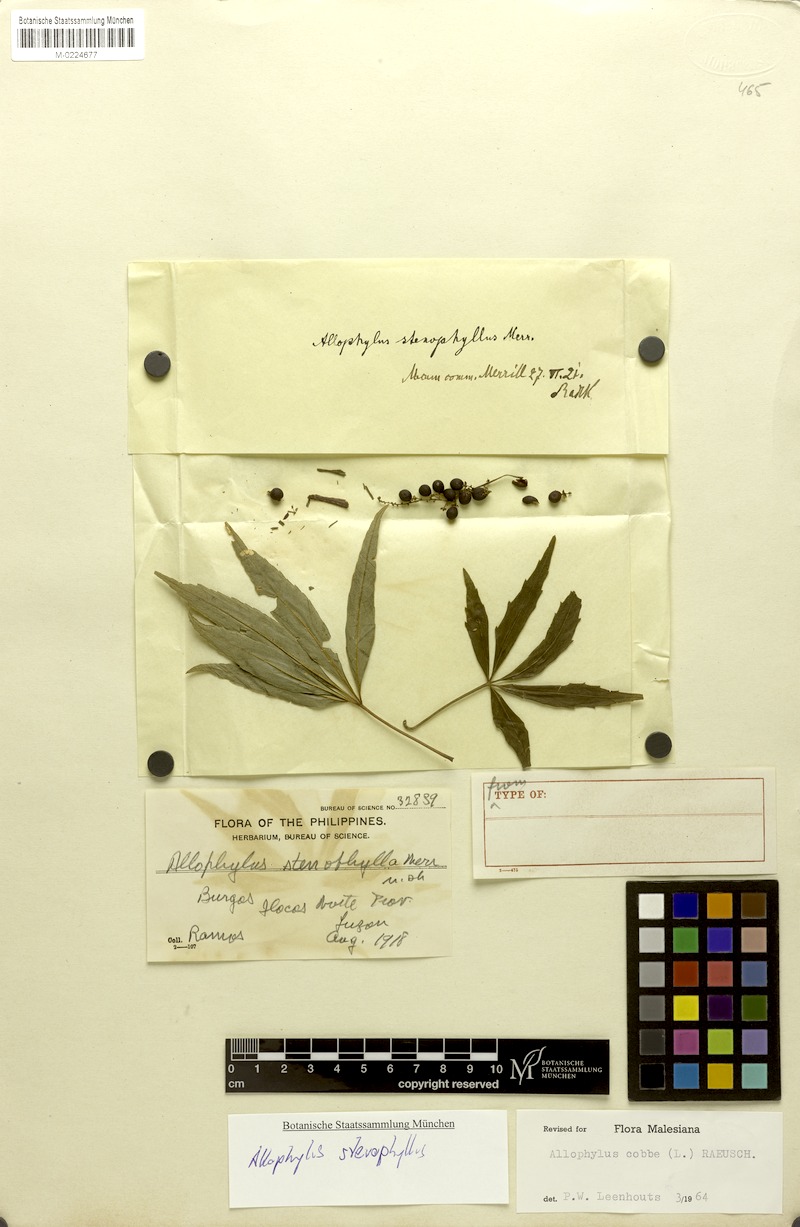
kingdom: Plantae
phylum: Tracheophyta
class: Magnoliopsida
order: Sapindales
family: Sapindaceae
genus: Allophylus
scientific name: Allophylus stenophyllus
